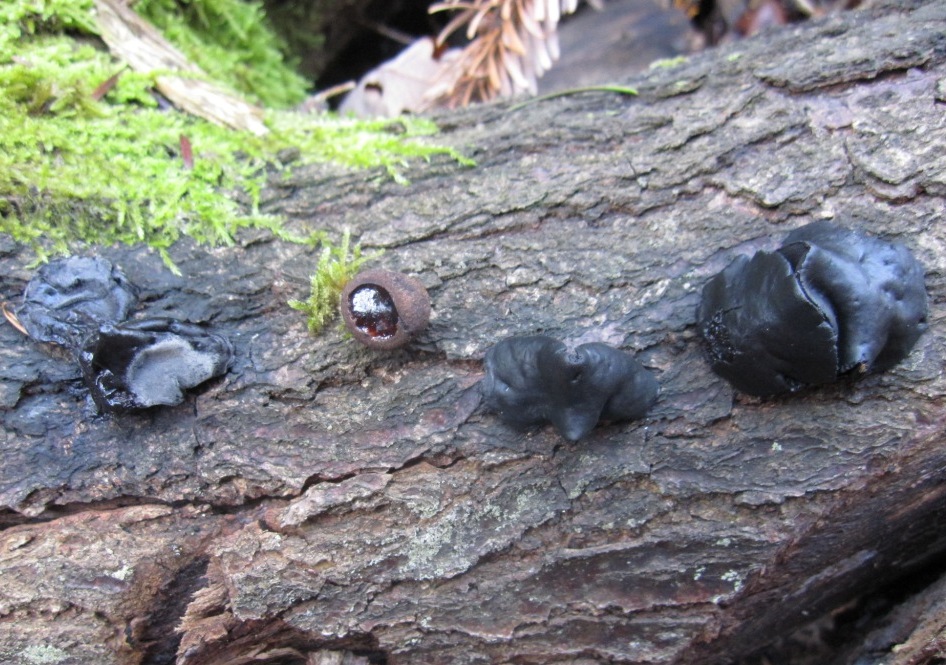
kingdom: Fungi
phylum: Ascomycota
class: Leotiomycetes
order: Phacidiales
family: Phacidiaceae
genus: Bulgaria
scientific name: Bulgaria inquinans
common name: afsmittende topsvamp
